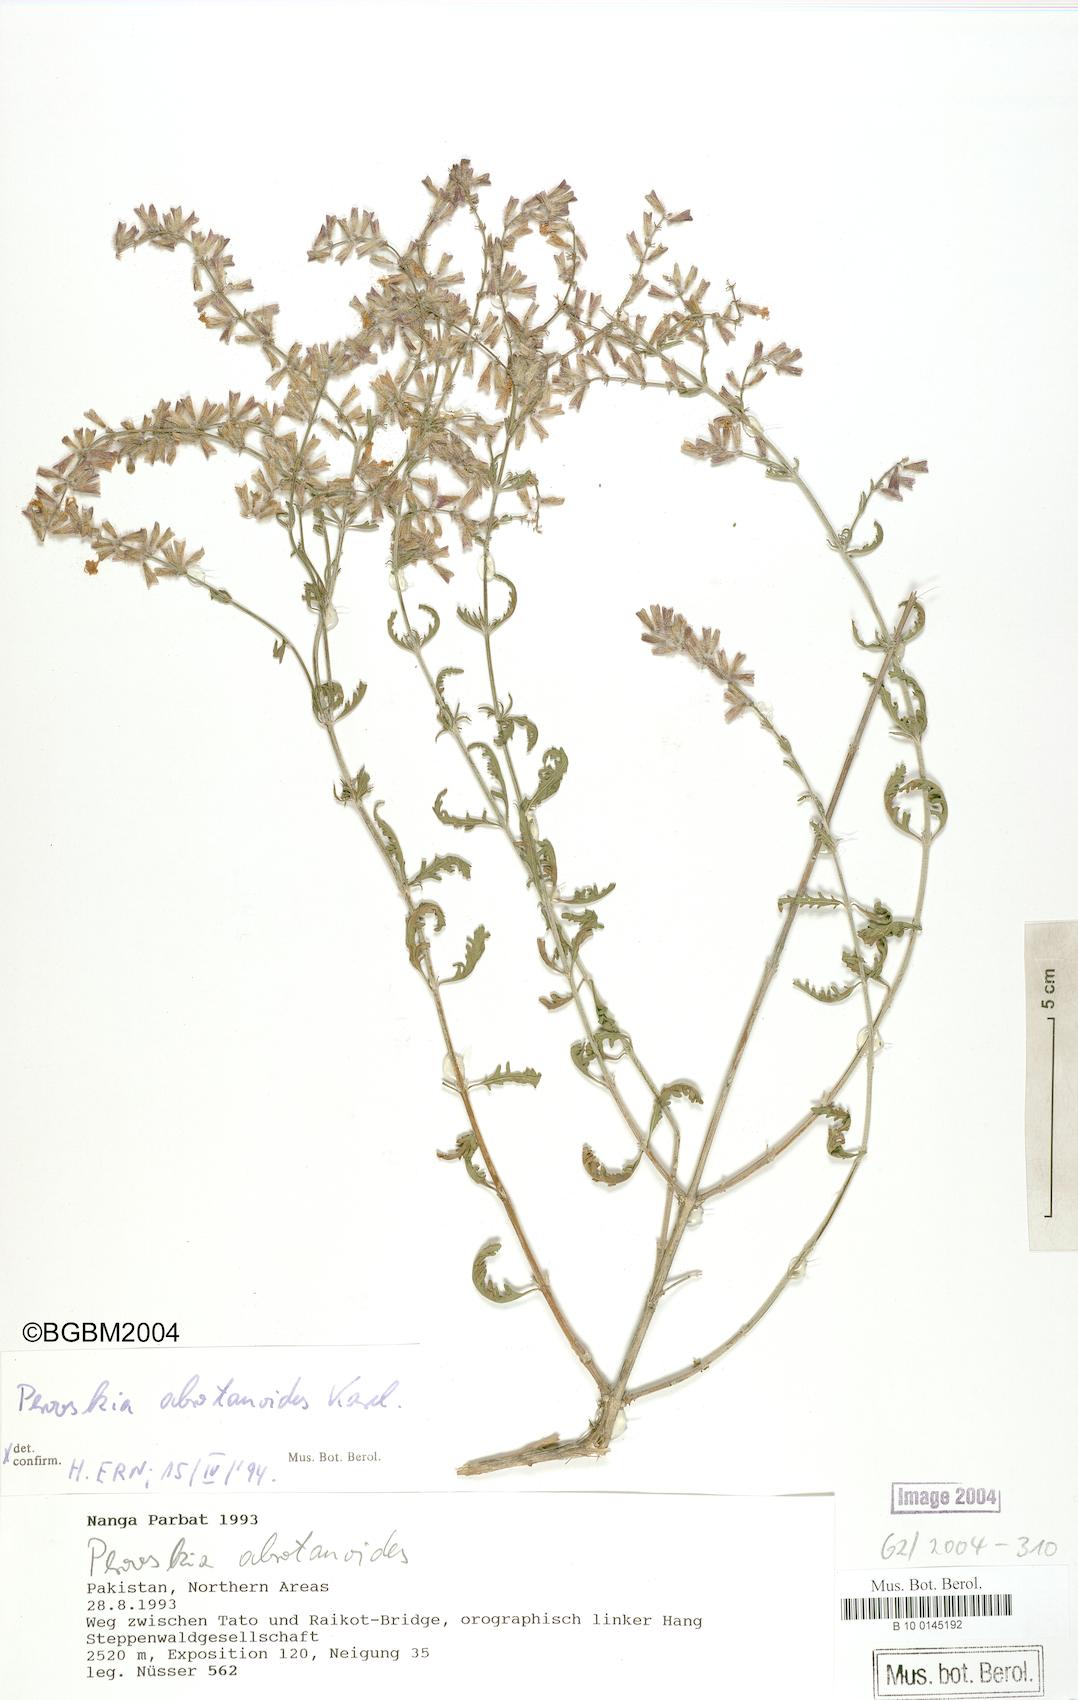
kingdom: Plantae
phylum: Tracheophyta
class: Magnoliopsida
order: Lamiales
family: Lamiaceae
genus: Salvia
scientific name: Salvia abrotanoides
